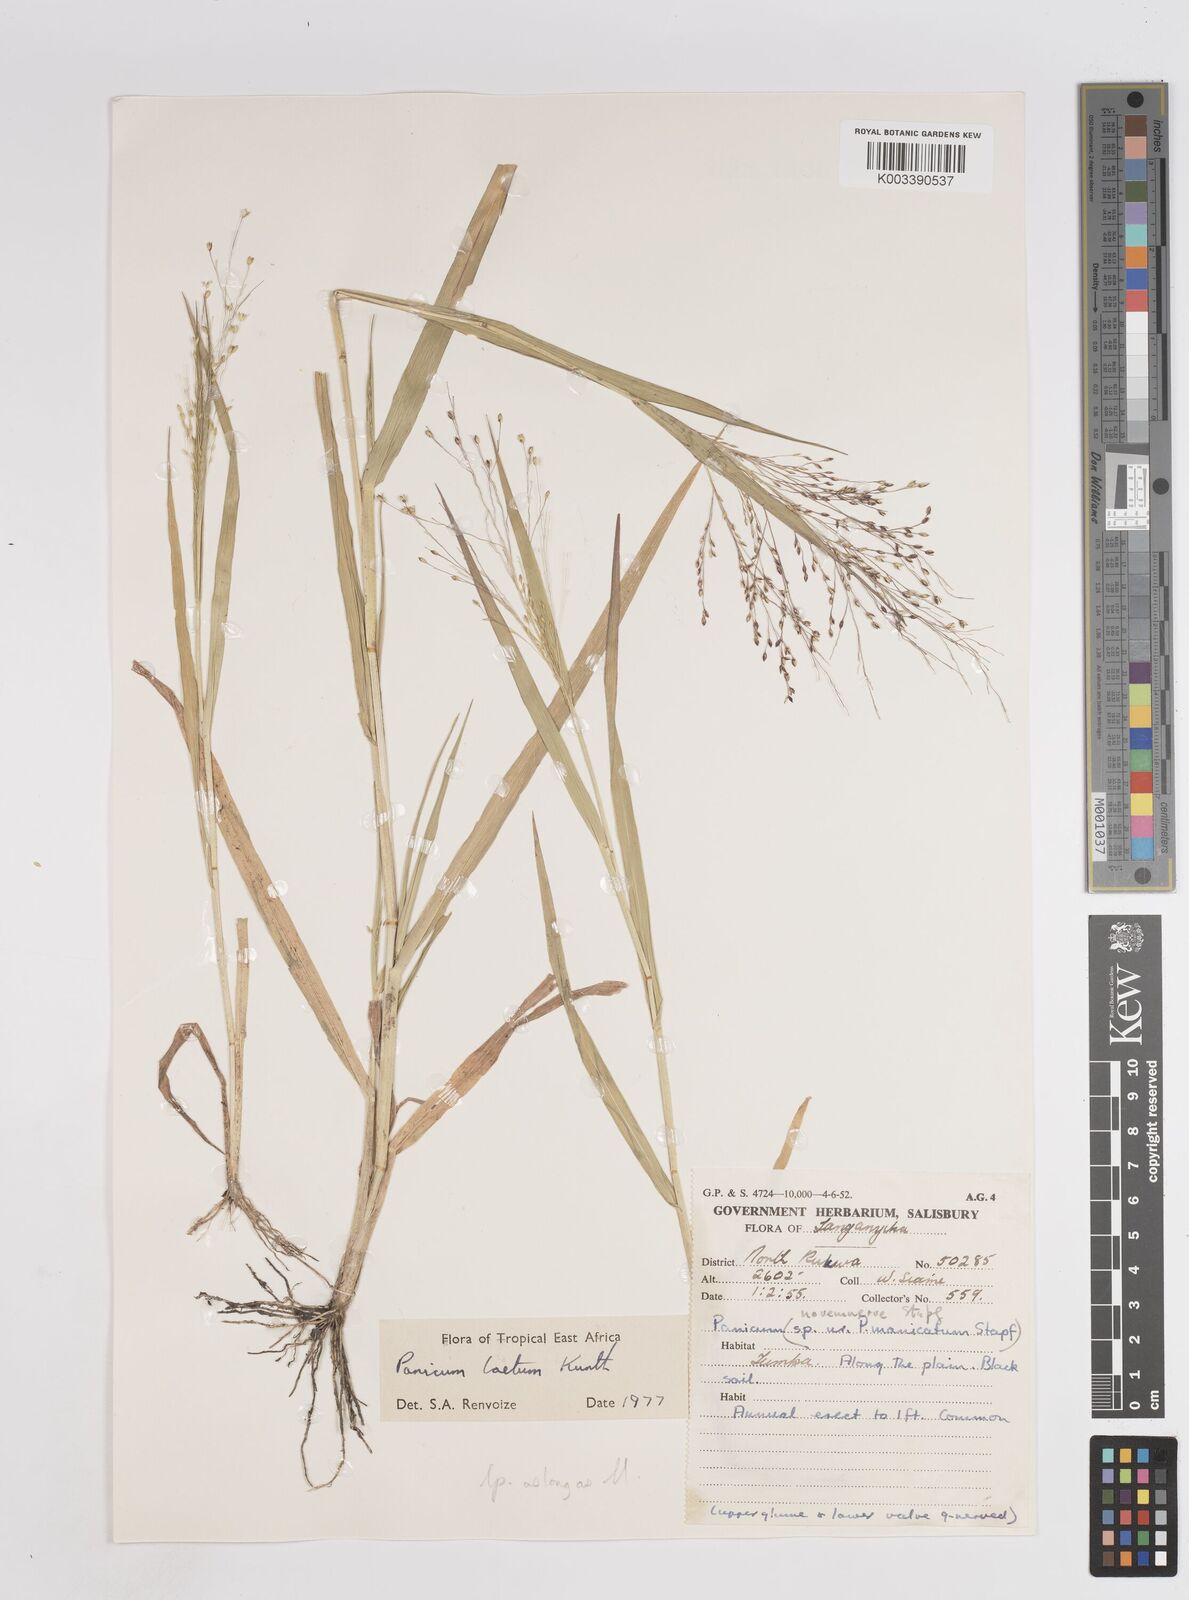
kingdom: Plantae
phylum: Tracheophyta
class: Liliopsida
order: Poales
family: Poaceae
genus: Panicum
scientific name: Panicum laetum
